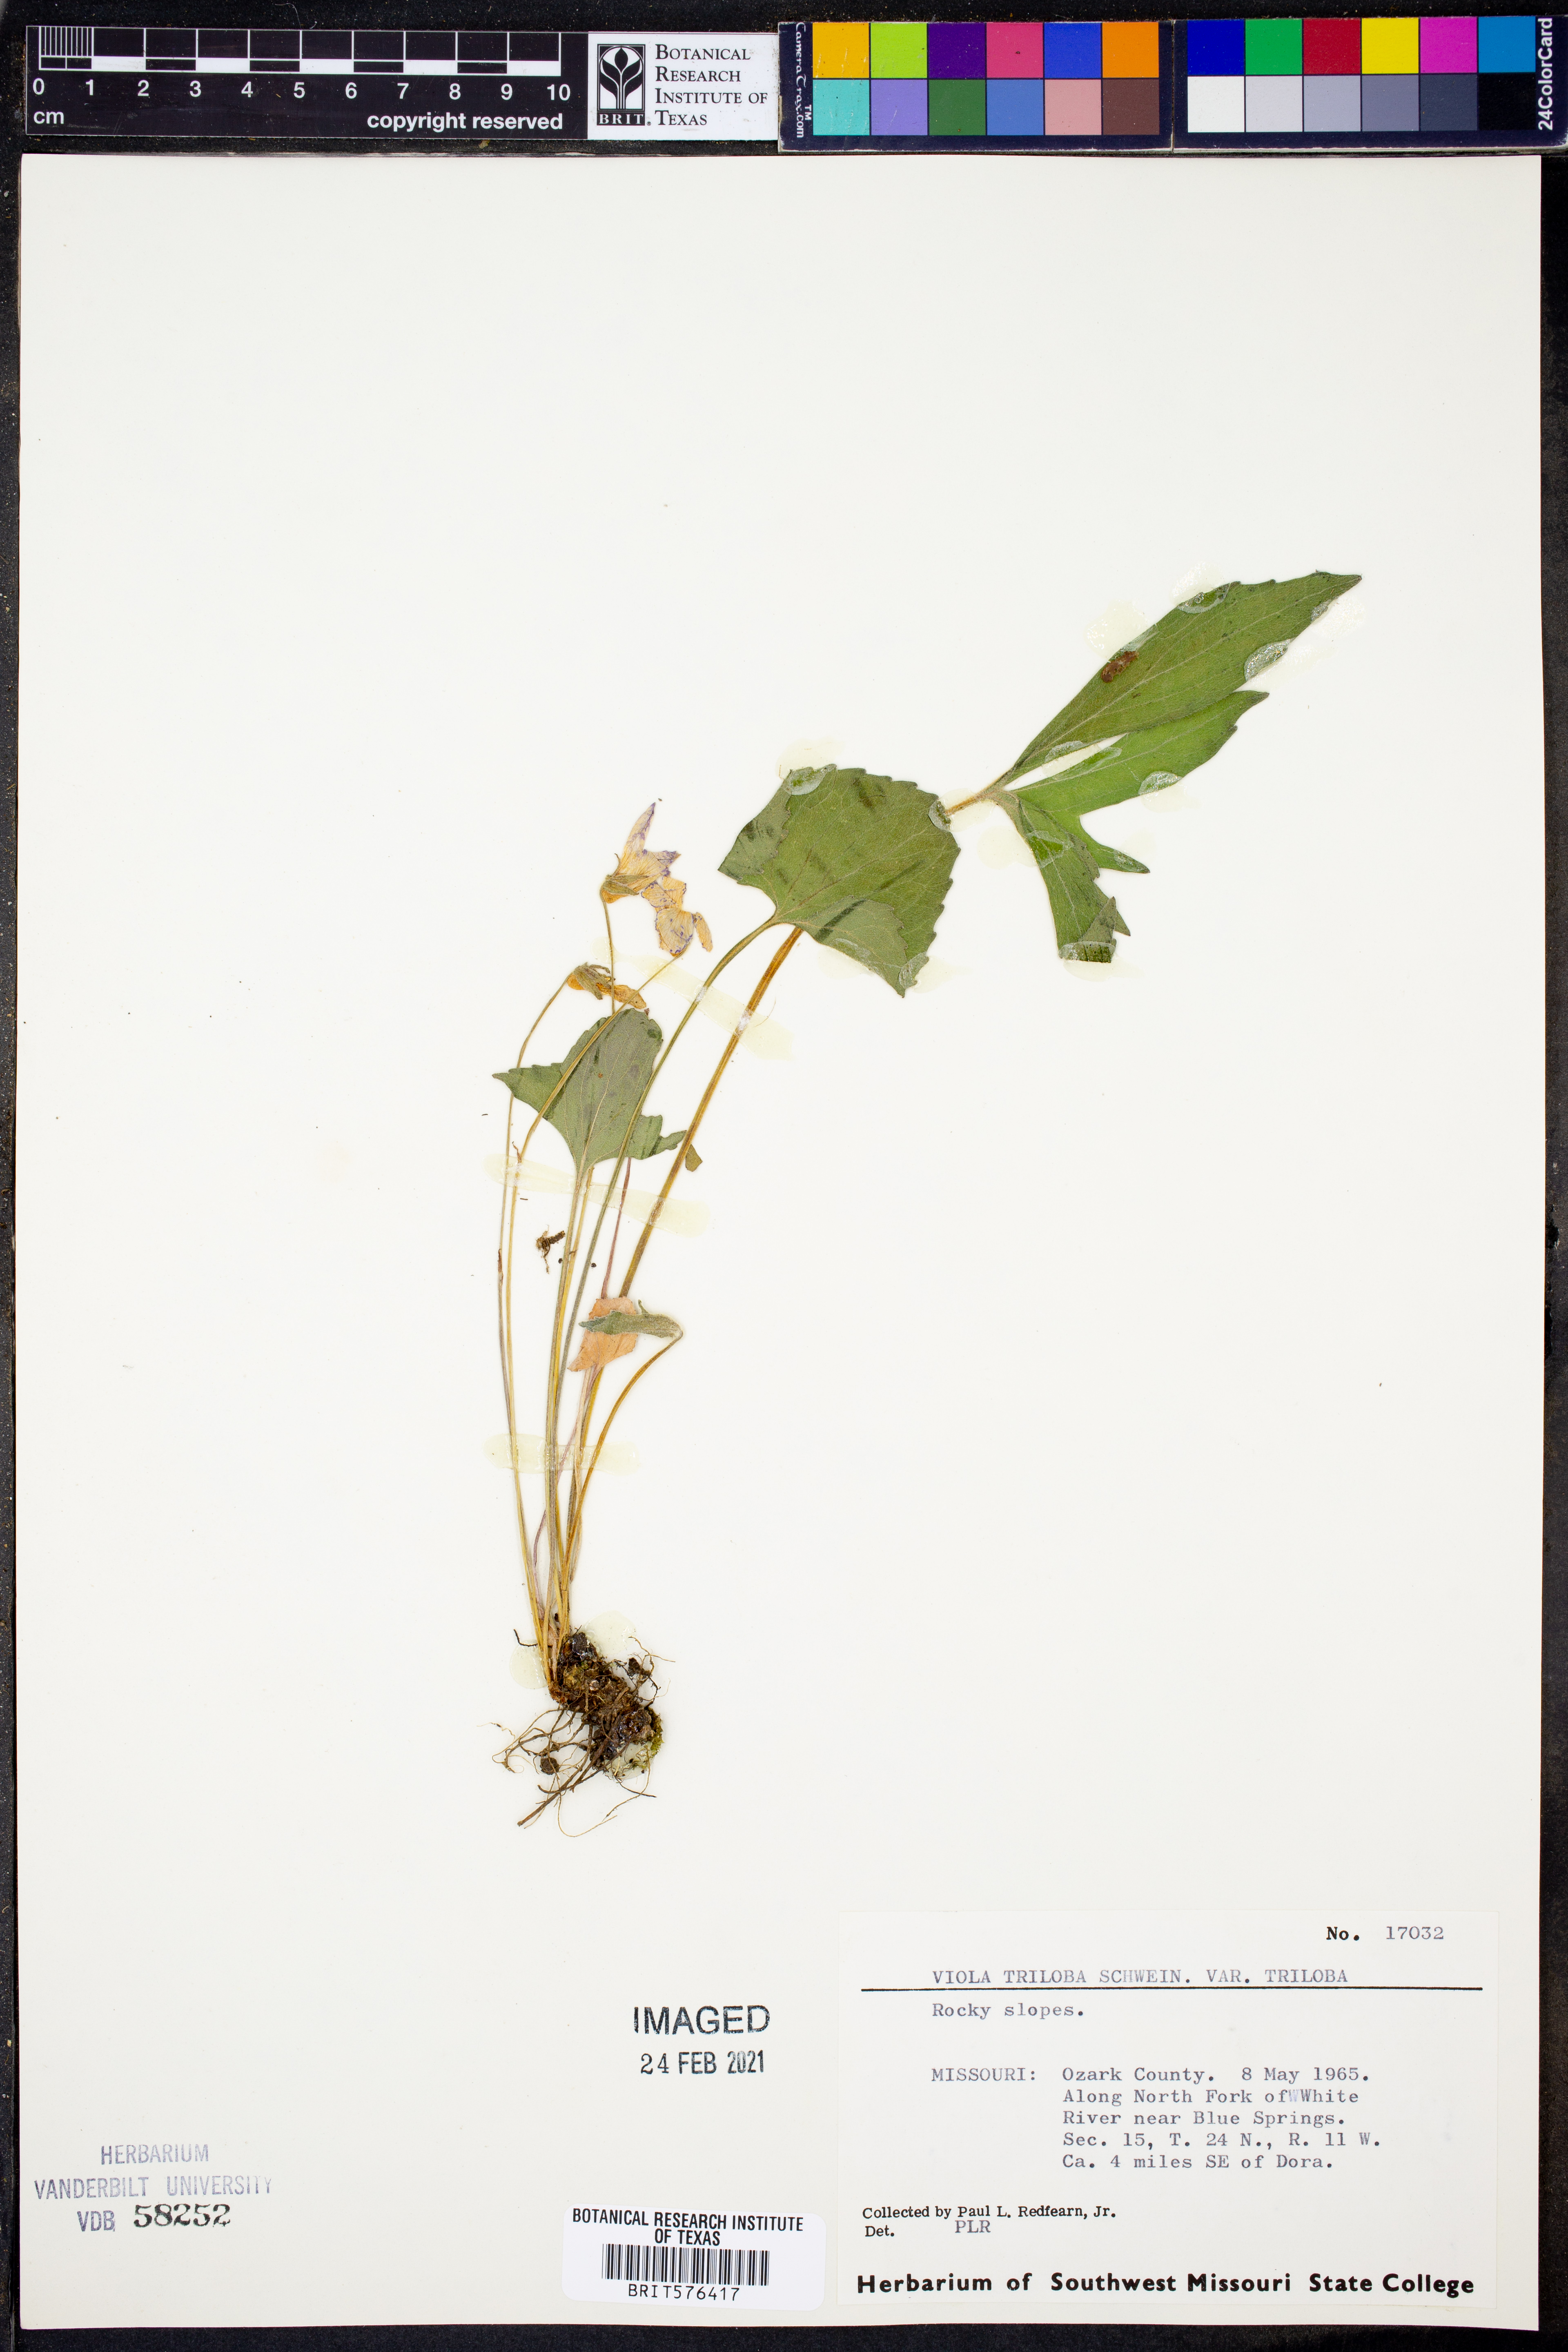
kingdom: Plantae
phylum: Tracheophyta
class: Magnoliopsida
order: Malpighiales
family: Violaceae
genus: Viola
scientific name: Viola palmata
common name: Early blue violet
